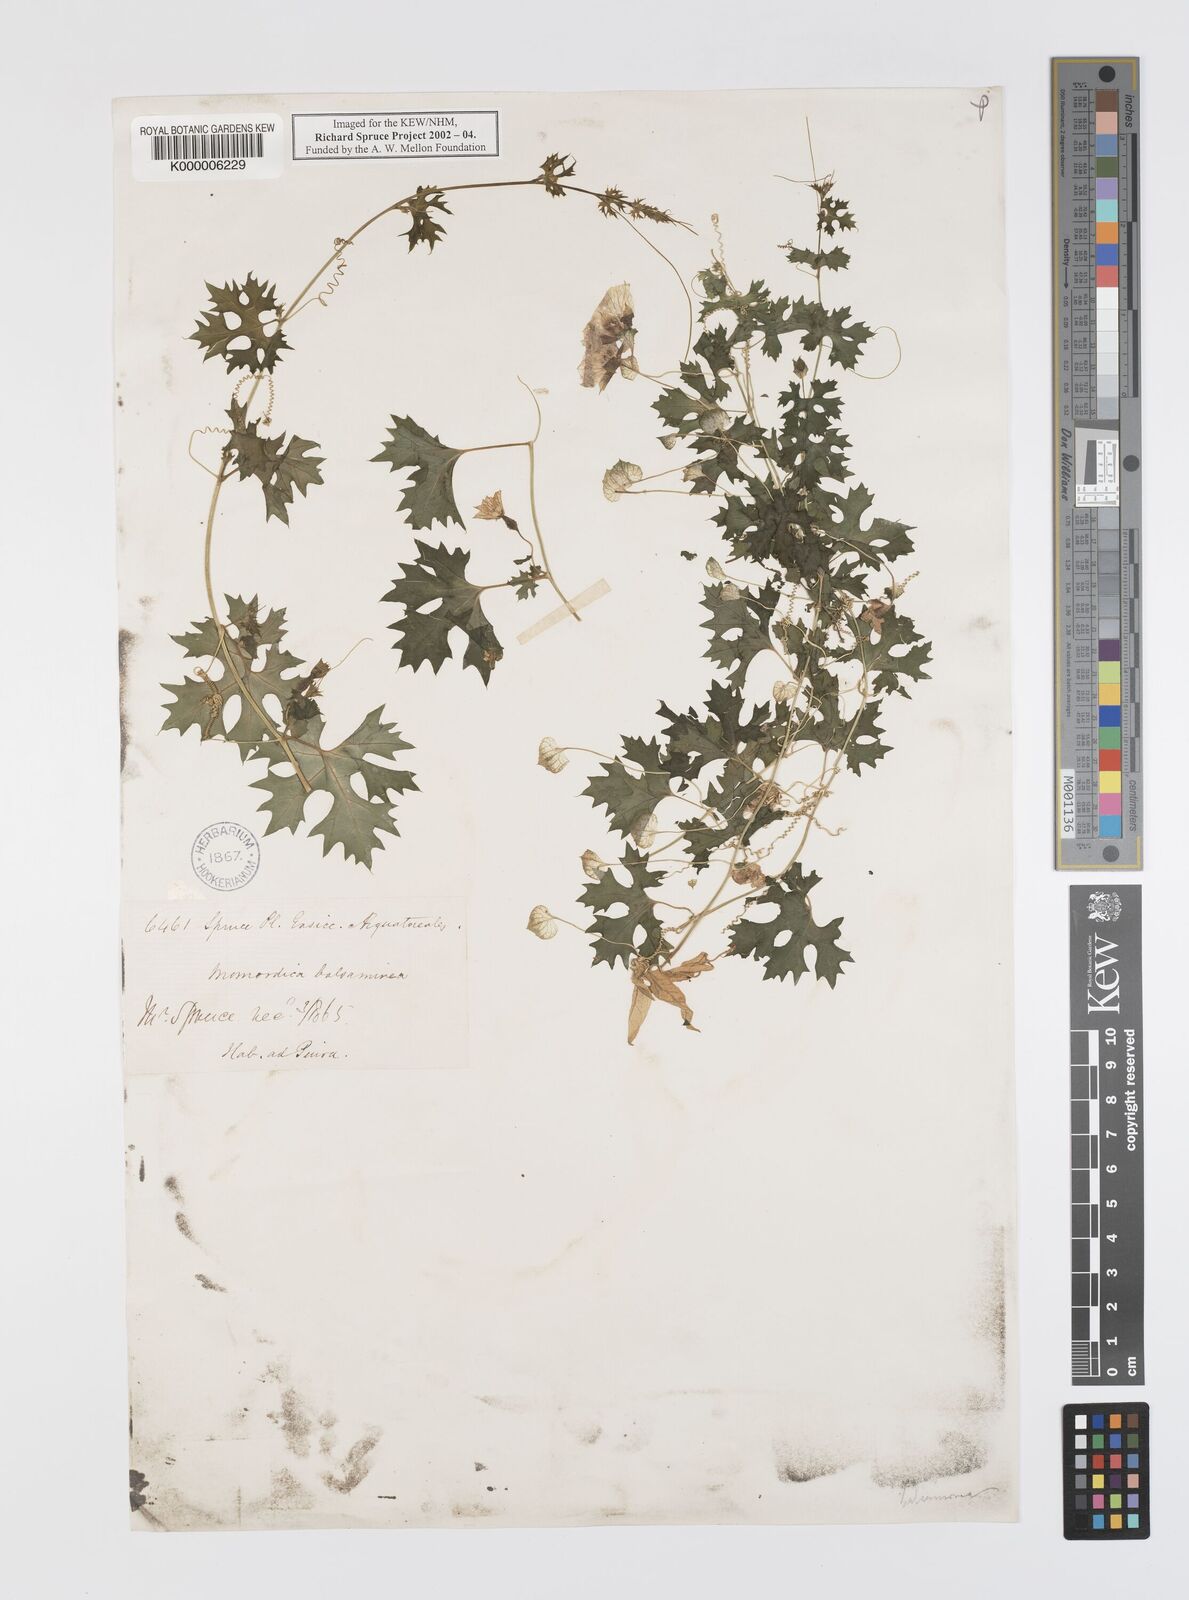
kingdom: Plantae
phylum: Tracheophyta
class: Magnoliopsida
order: Cucurbitales
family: Cucurbitaceae
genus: Momordica
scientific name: Momordica balsamina
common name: Southern balsampear
